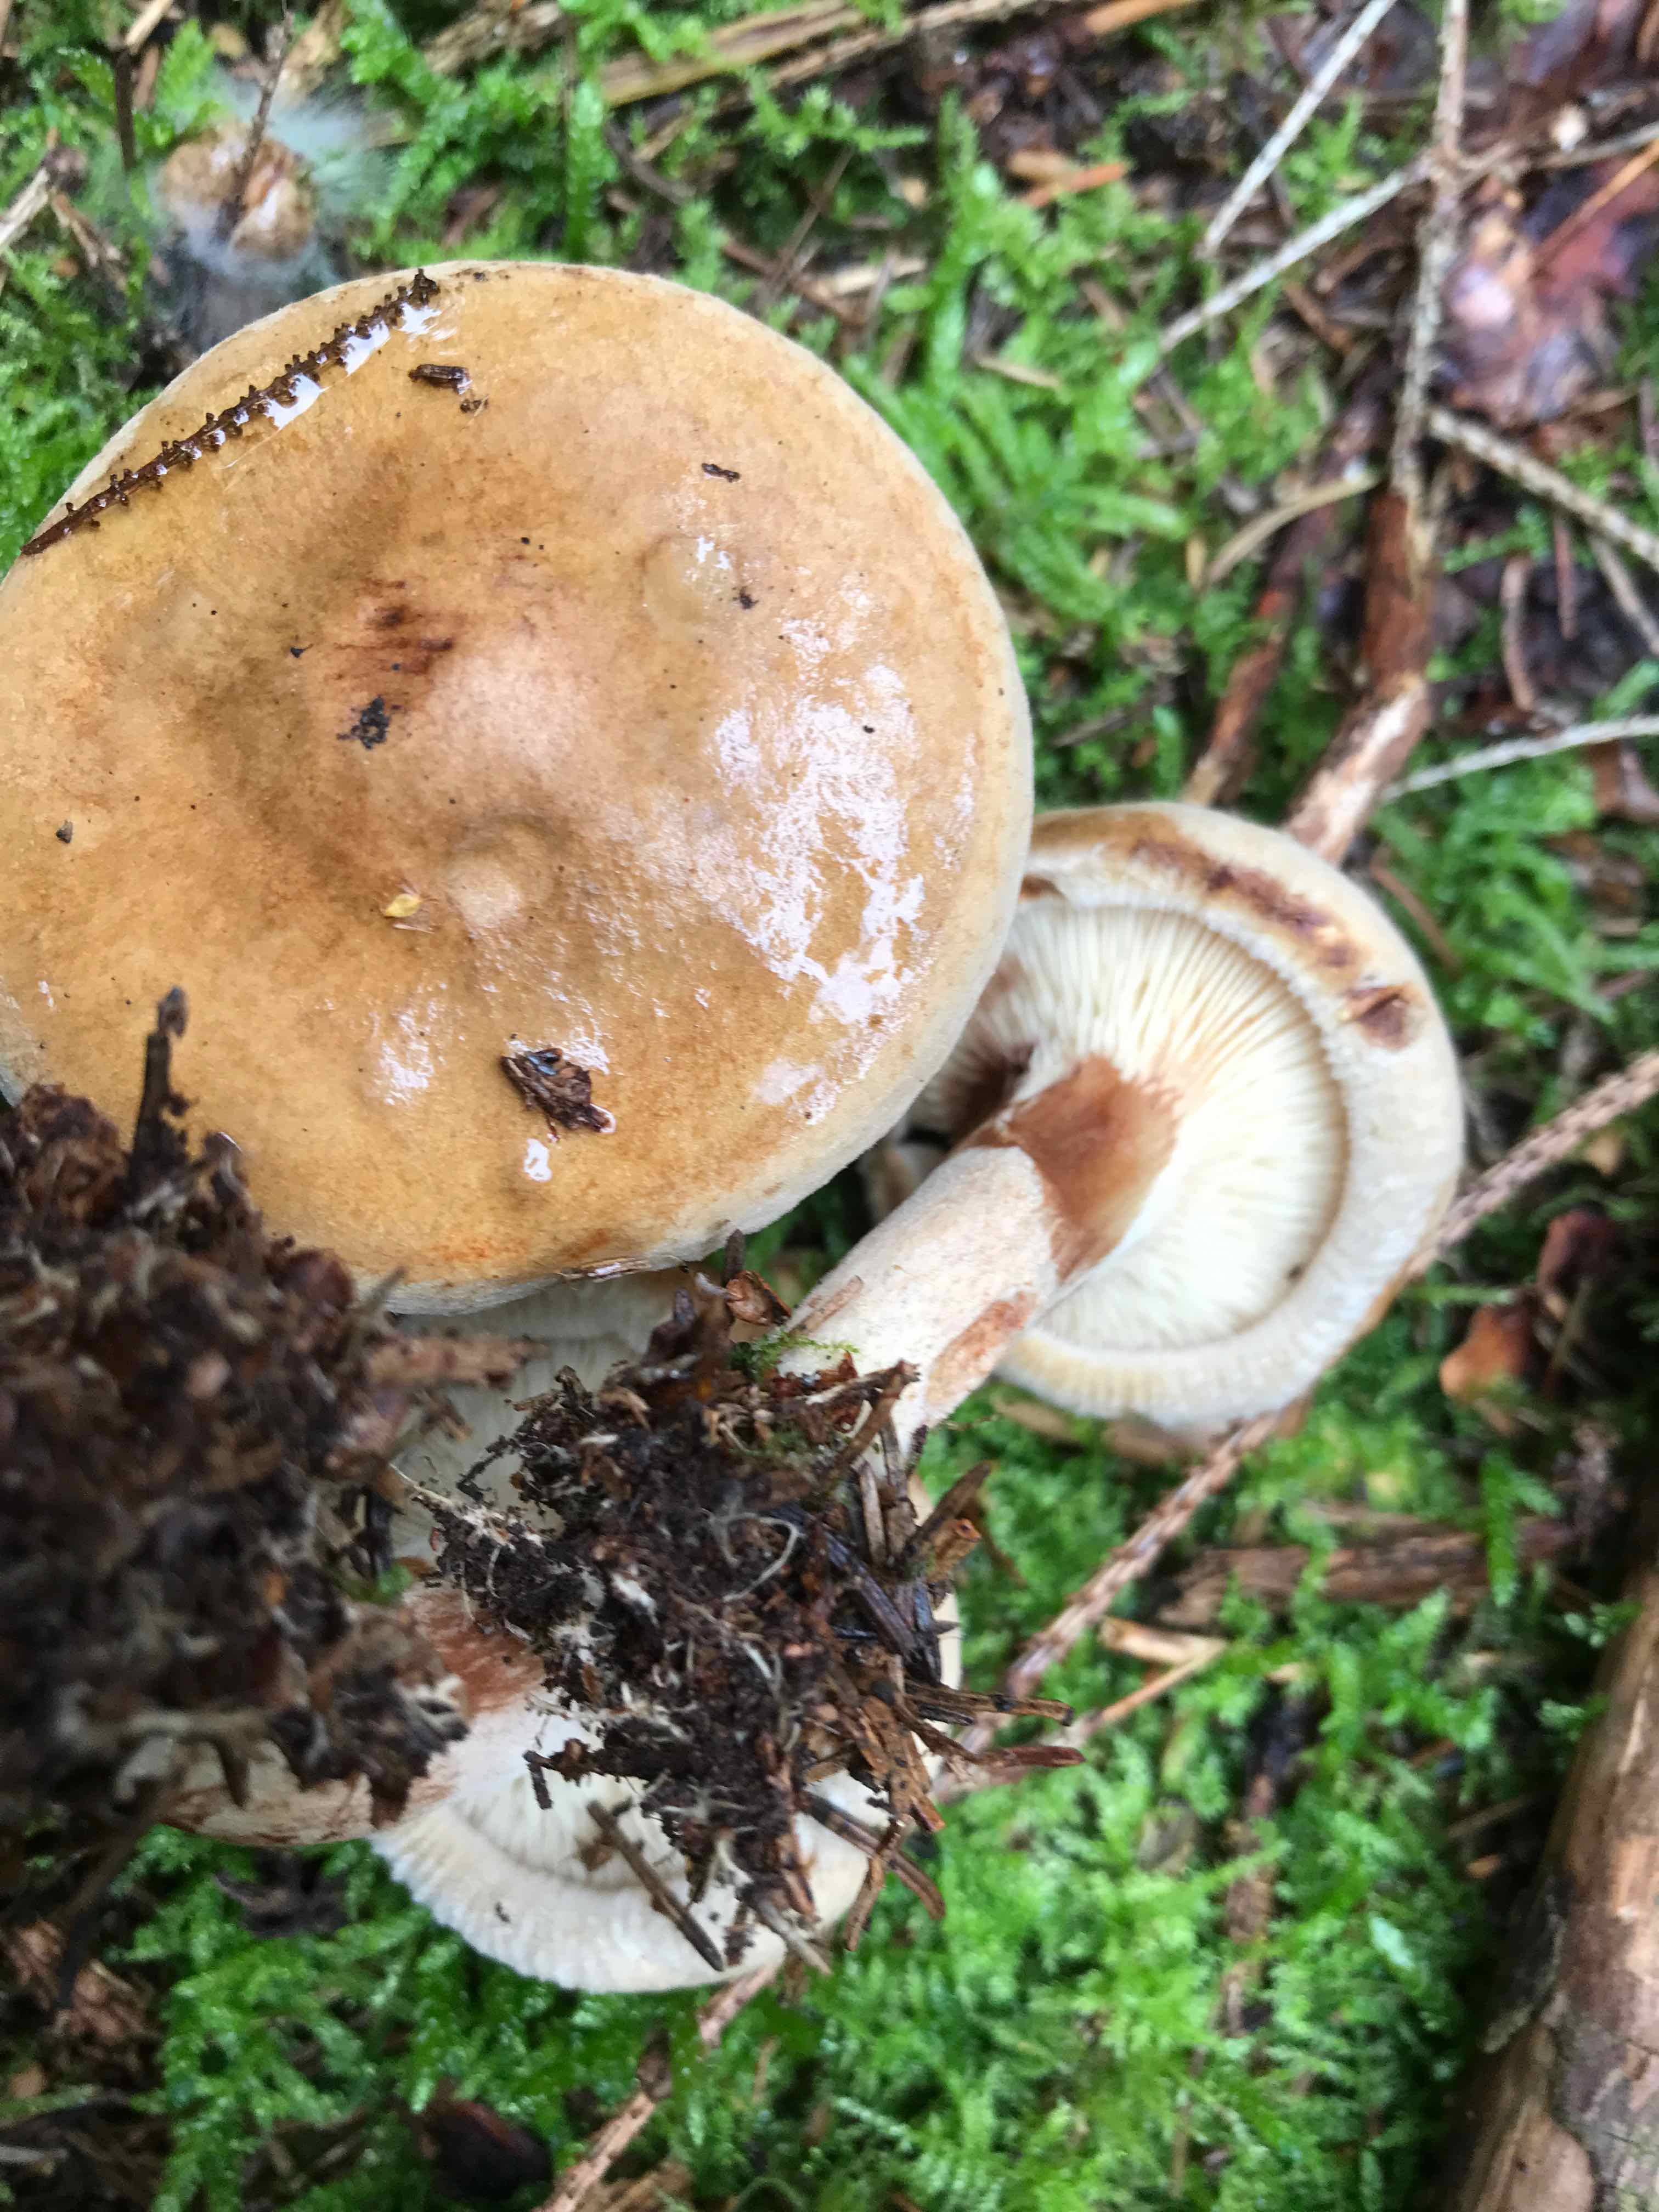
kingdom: Fungi
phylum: Basidiomycota
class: Agaricomycetes
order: Boletales
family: Paxillaceae
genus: Paxillus
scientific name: Paxillus involutus
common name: almindelig netbladhat
